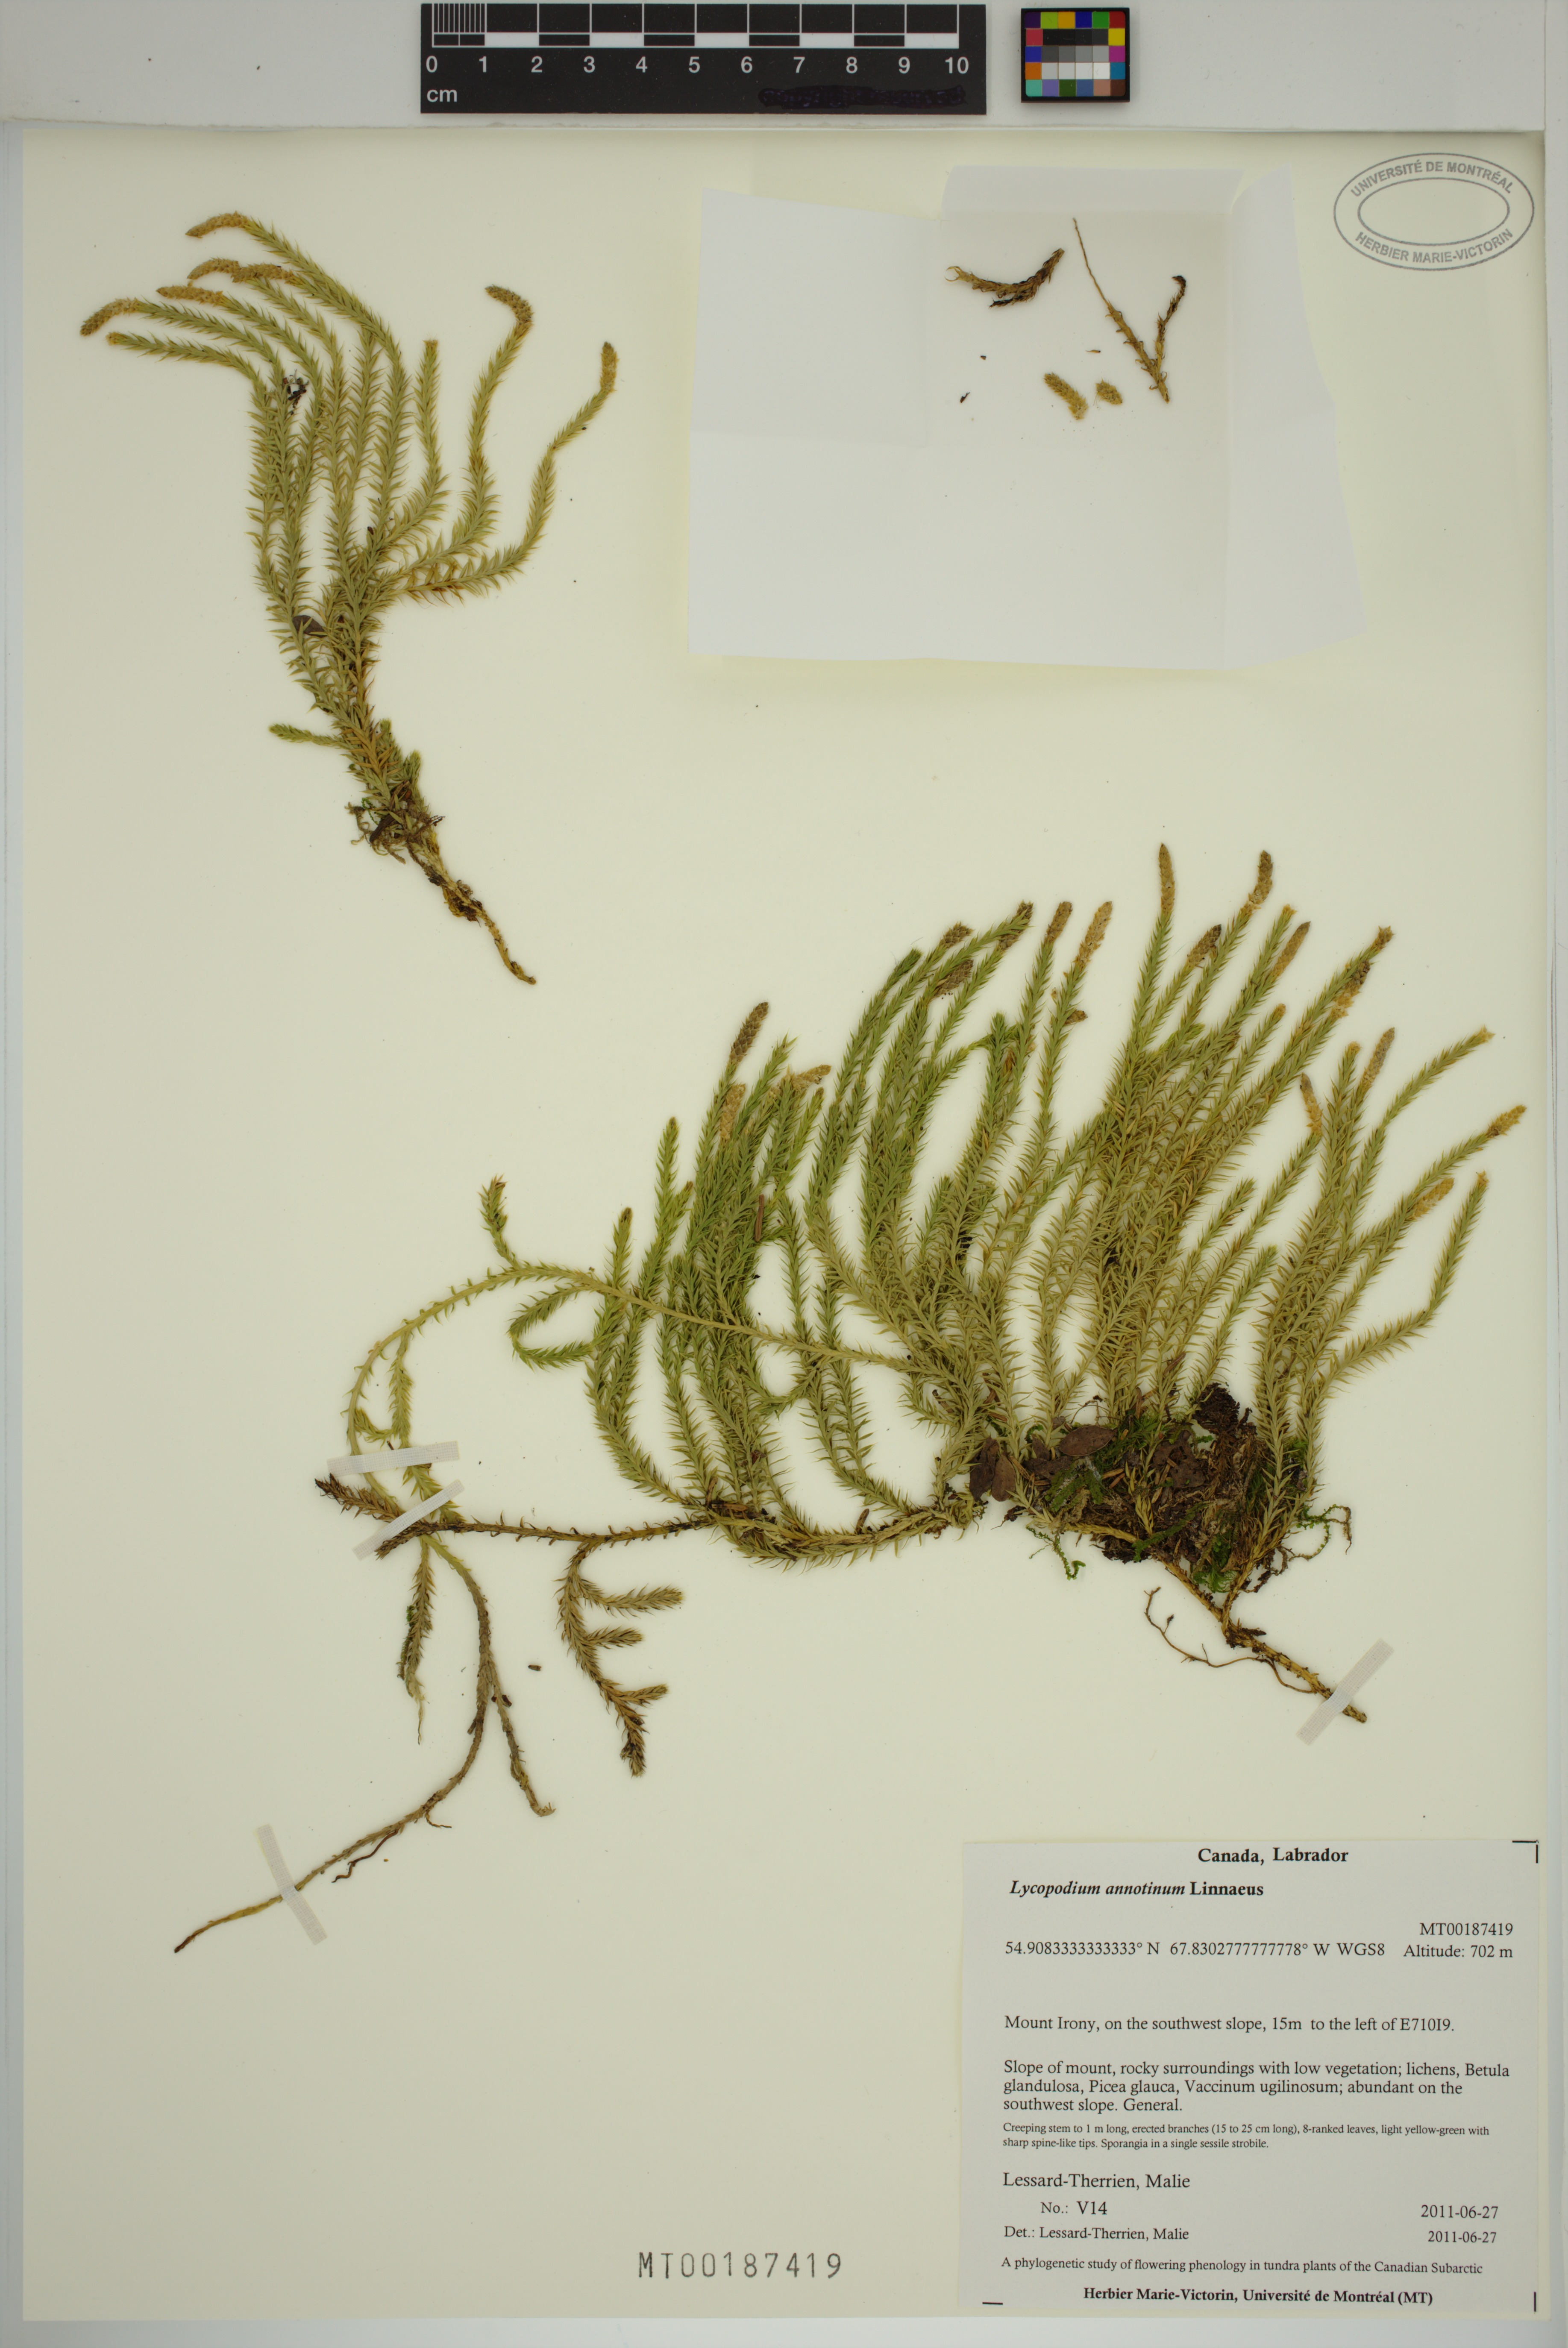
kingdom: Plantae
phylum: Tracheophyta
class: Lycopodiopsida
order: Lycopodiales
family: Lycopodiaceae
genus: Spinulum
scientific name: Spinulum annotinum
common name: Interrupted club-moss
